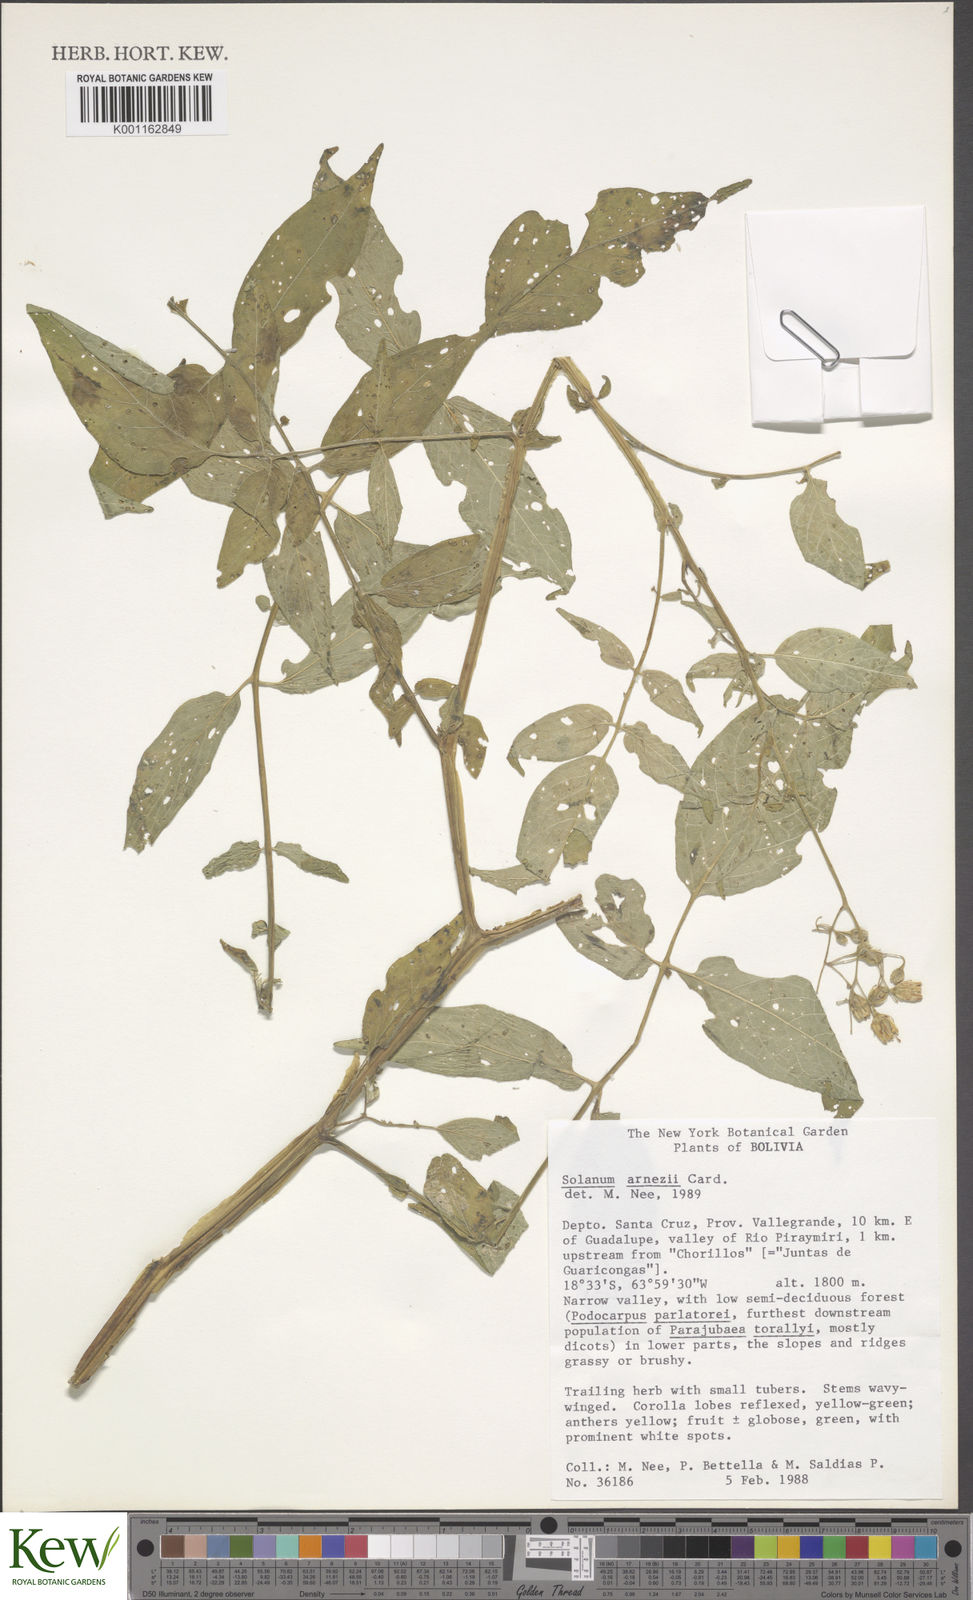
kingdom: Plantae
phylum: Tracheophyta
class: Magnoliopsida
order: Solanales
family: Solanaceae
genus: Solanum
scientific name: Solanum
